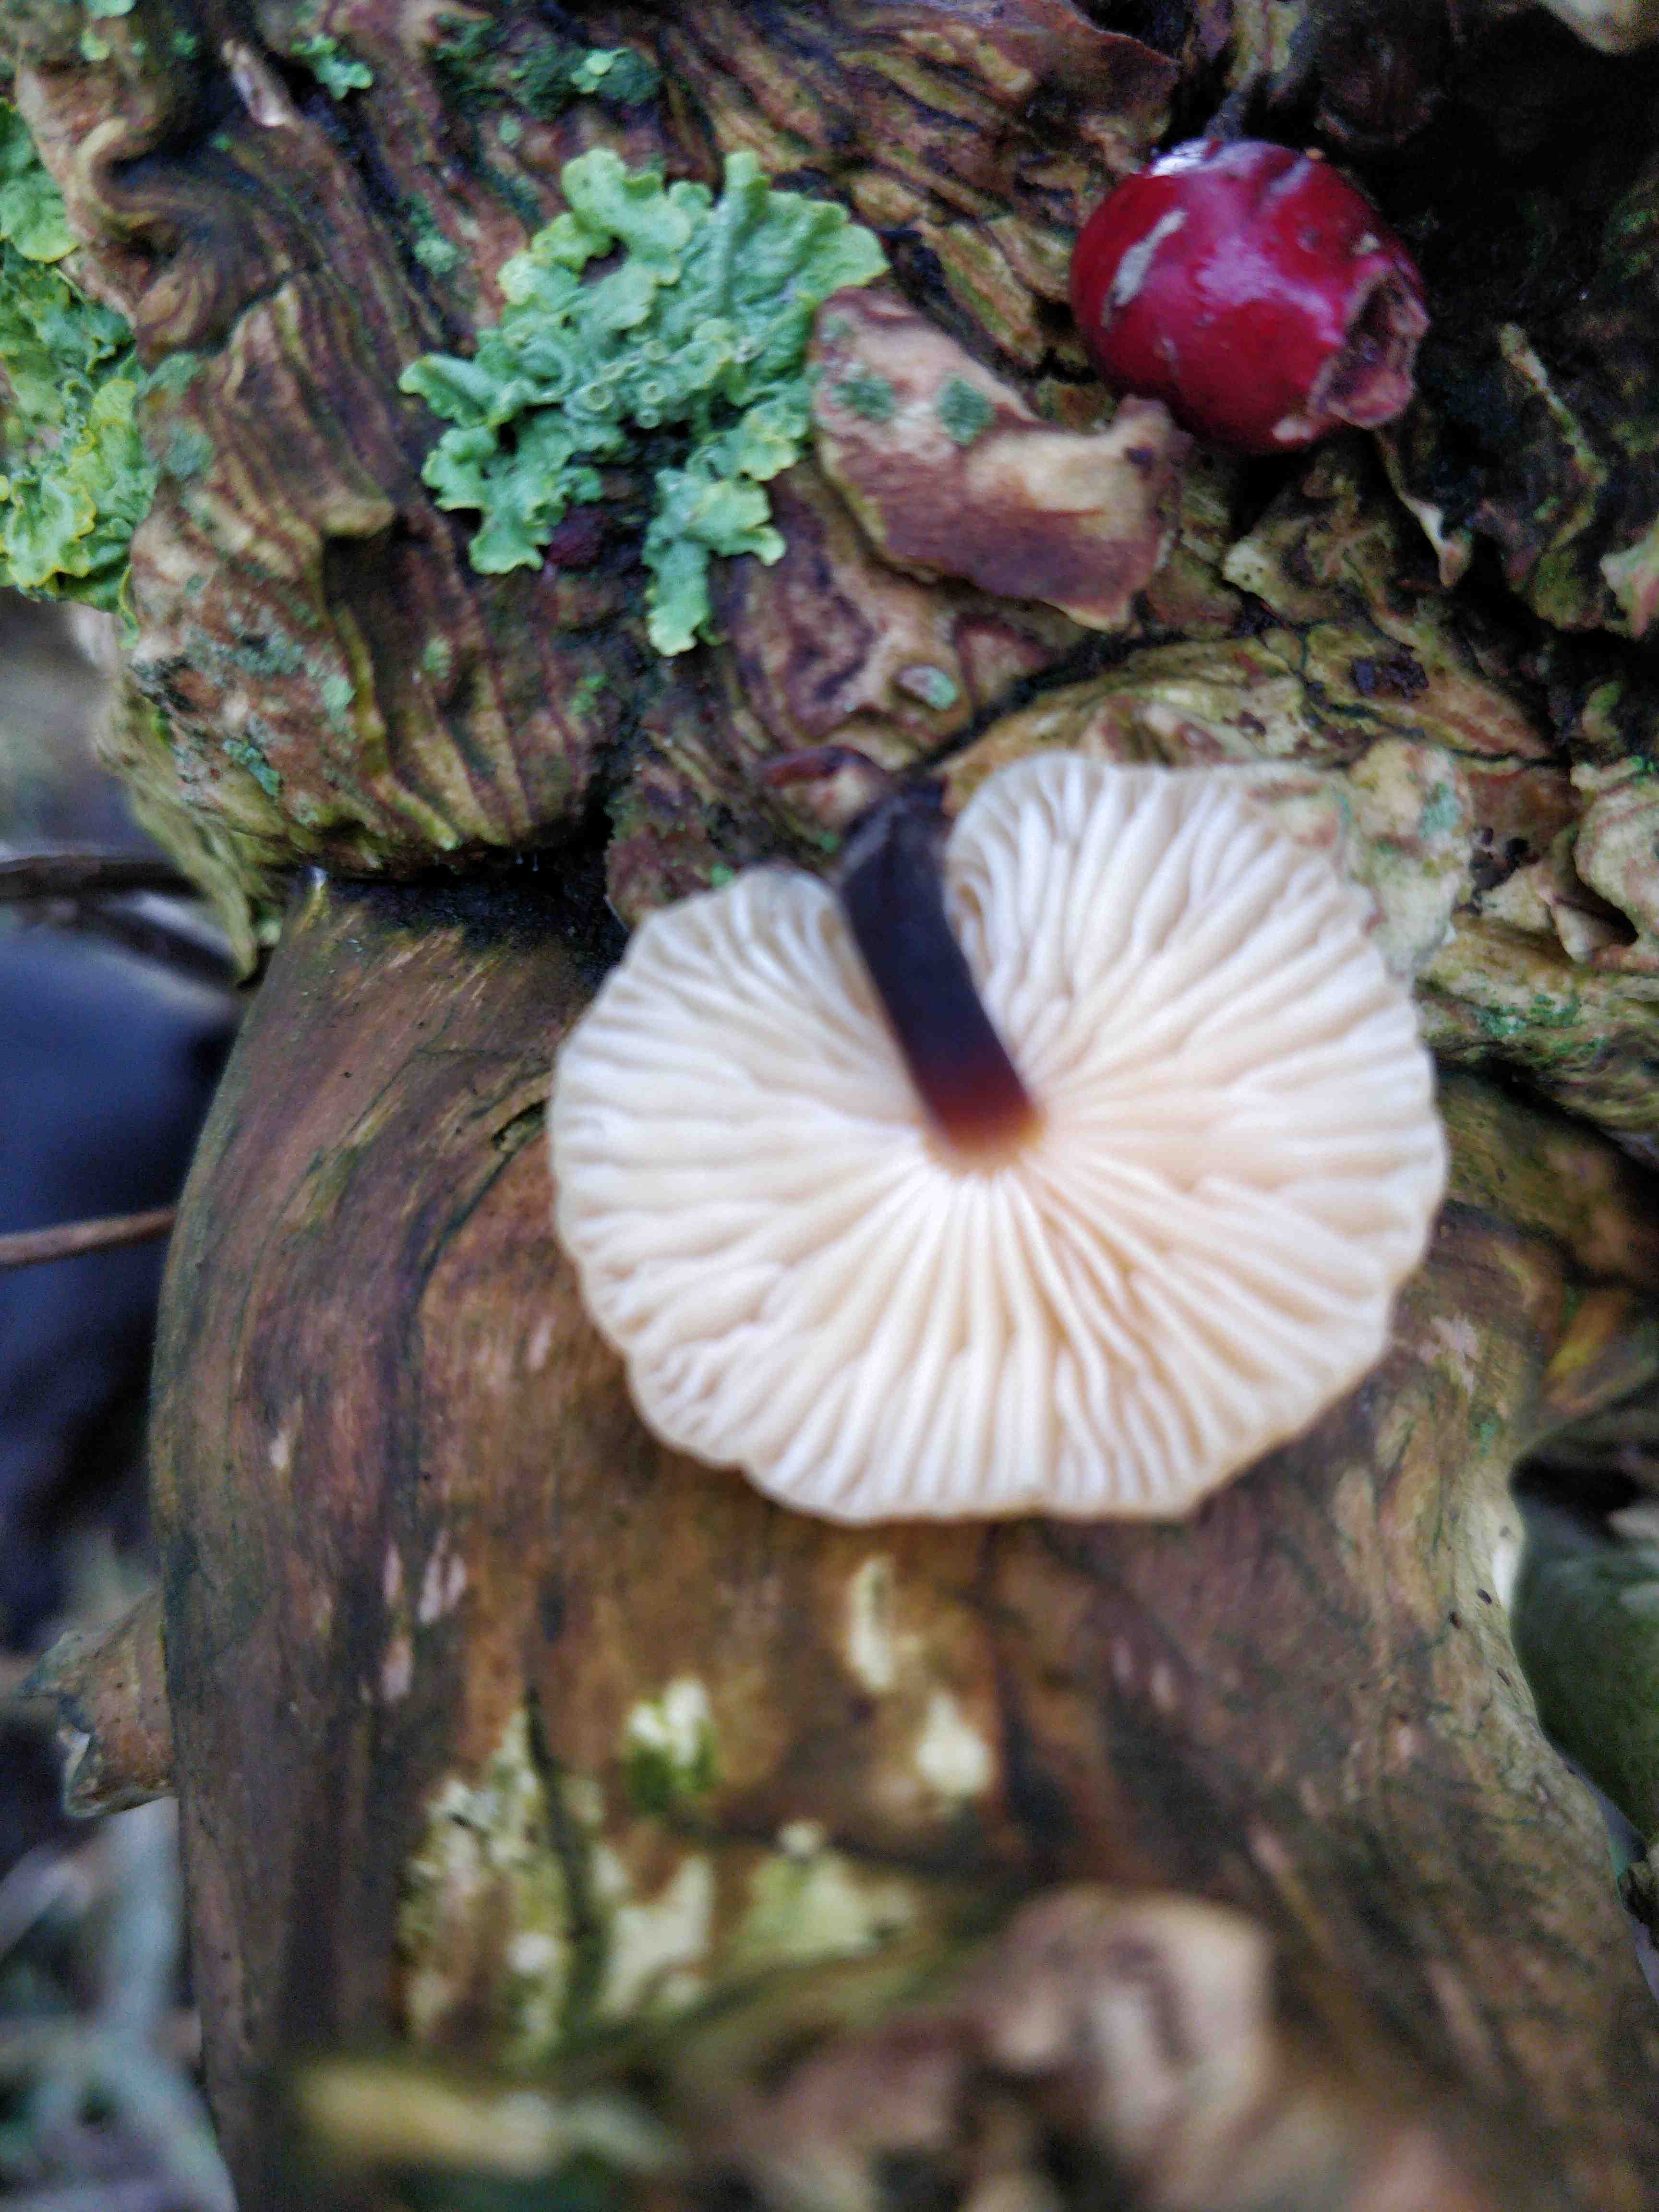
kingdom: Fungi
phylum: Basidiomycota
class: Agaricomycetes
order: Agaricales
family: Physalacriaceae
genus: Flammulina
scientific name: Flammulina velutipes
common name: gul fløjlsfod
